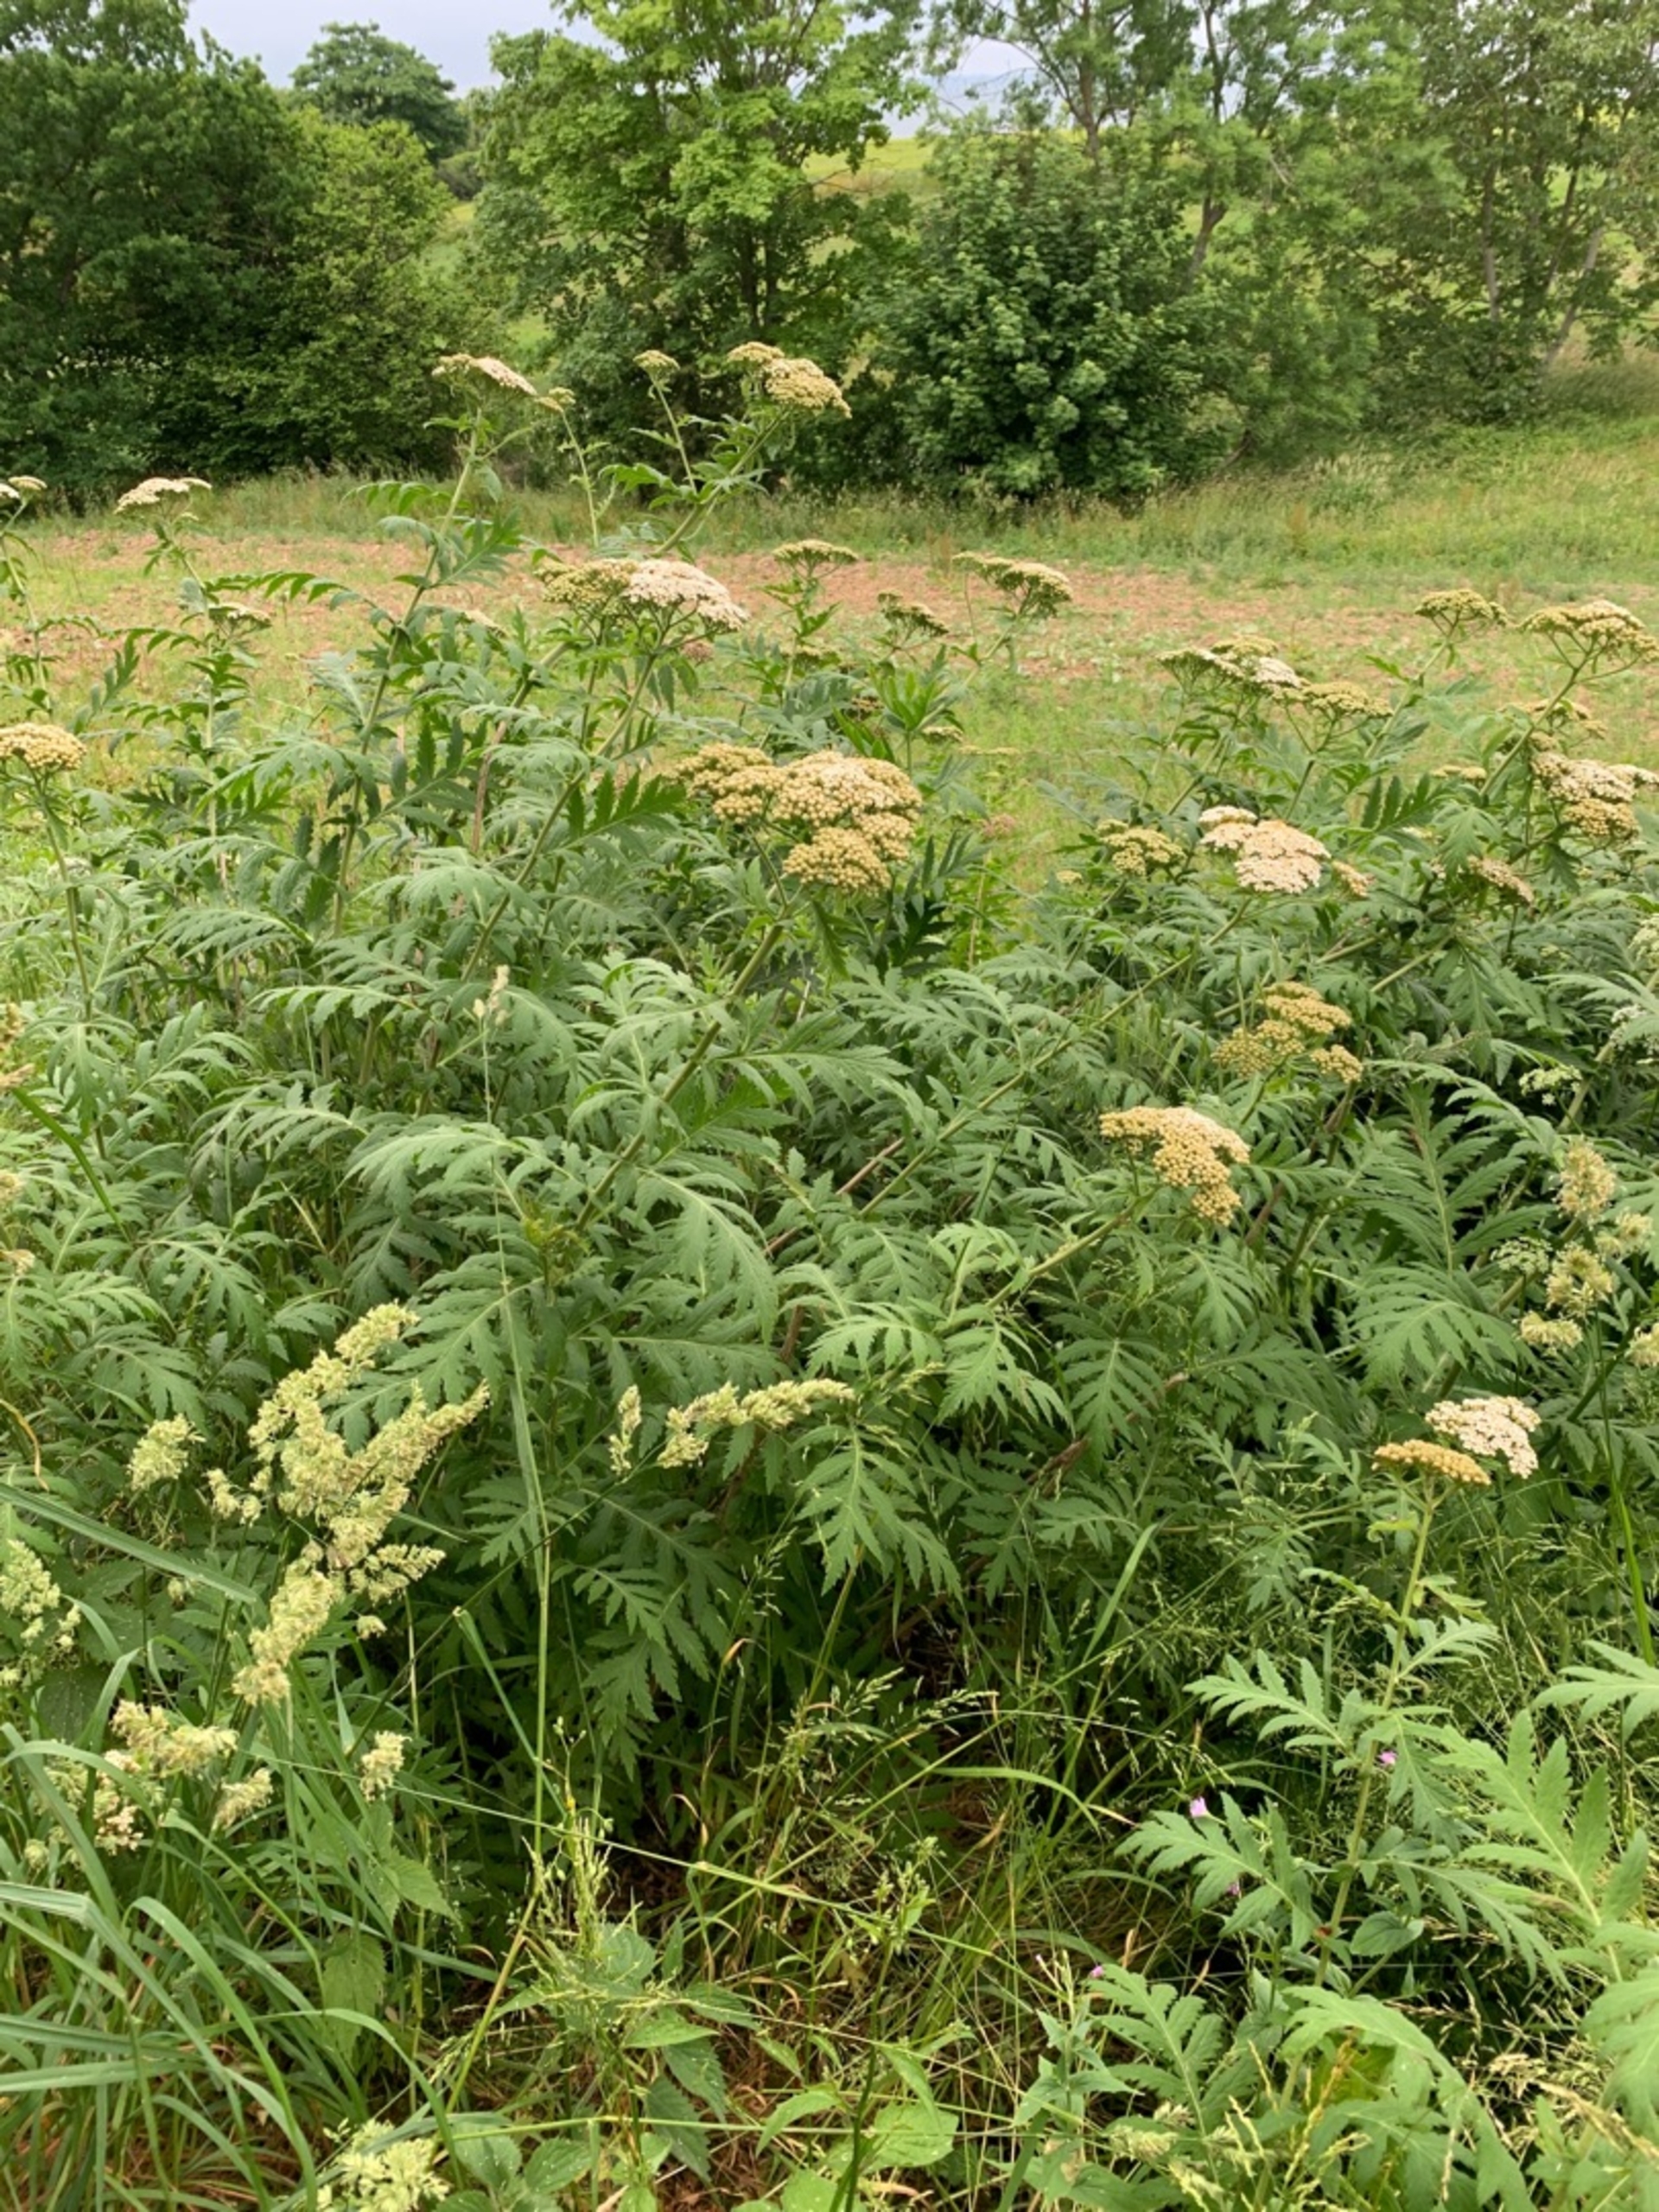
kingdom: Plantae
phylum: Tracheophyta
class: Magnoliopsida
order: Asterales
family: Asteraceae
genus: Tanacetum
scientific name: Tanacetum macrophyllum
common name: Røllike-matrem
